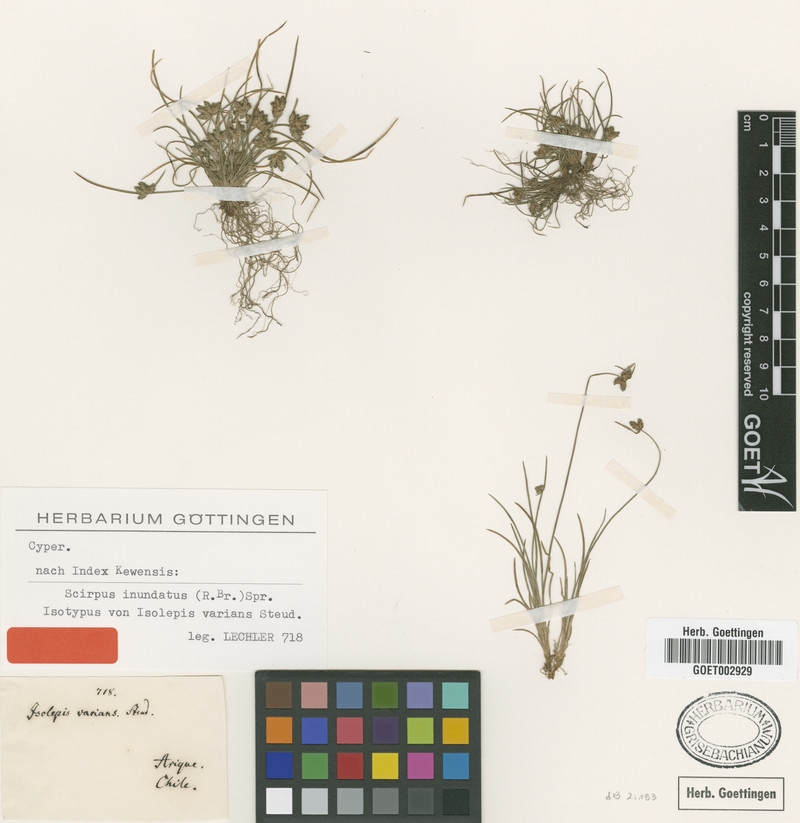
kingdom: Plantae
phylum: Tracheophyta
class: Liliopsida
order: Poales
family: Cyperaceae
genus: Scirpus
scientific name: Scirpus inundatus
